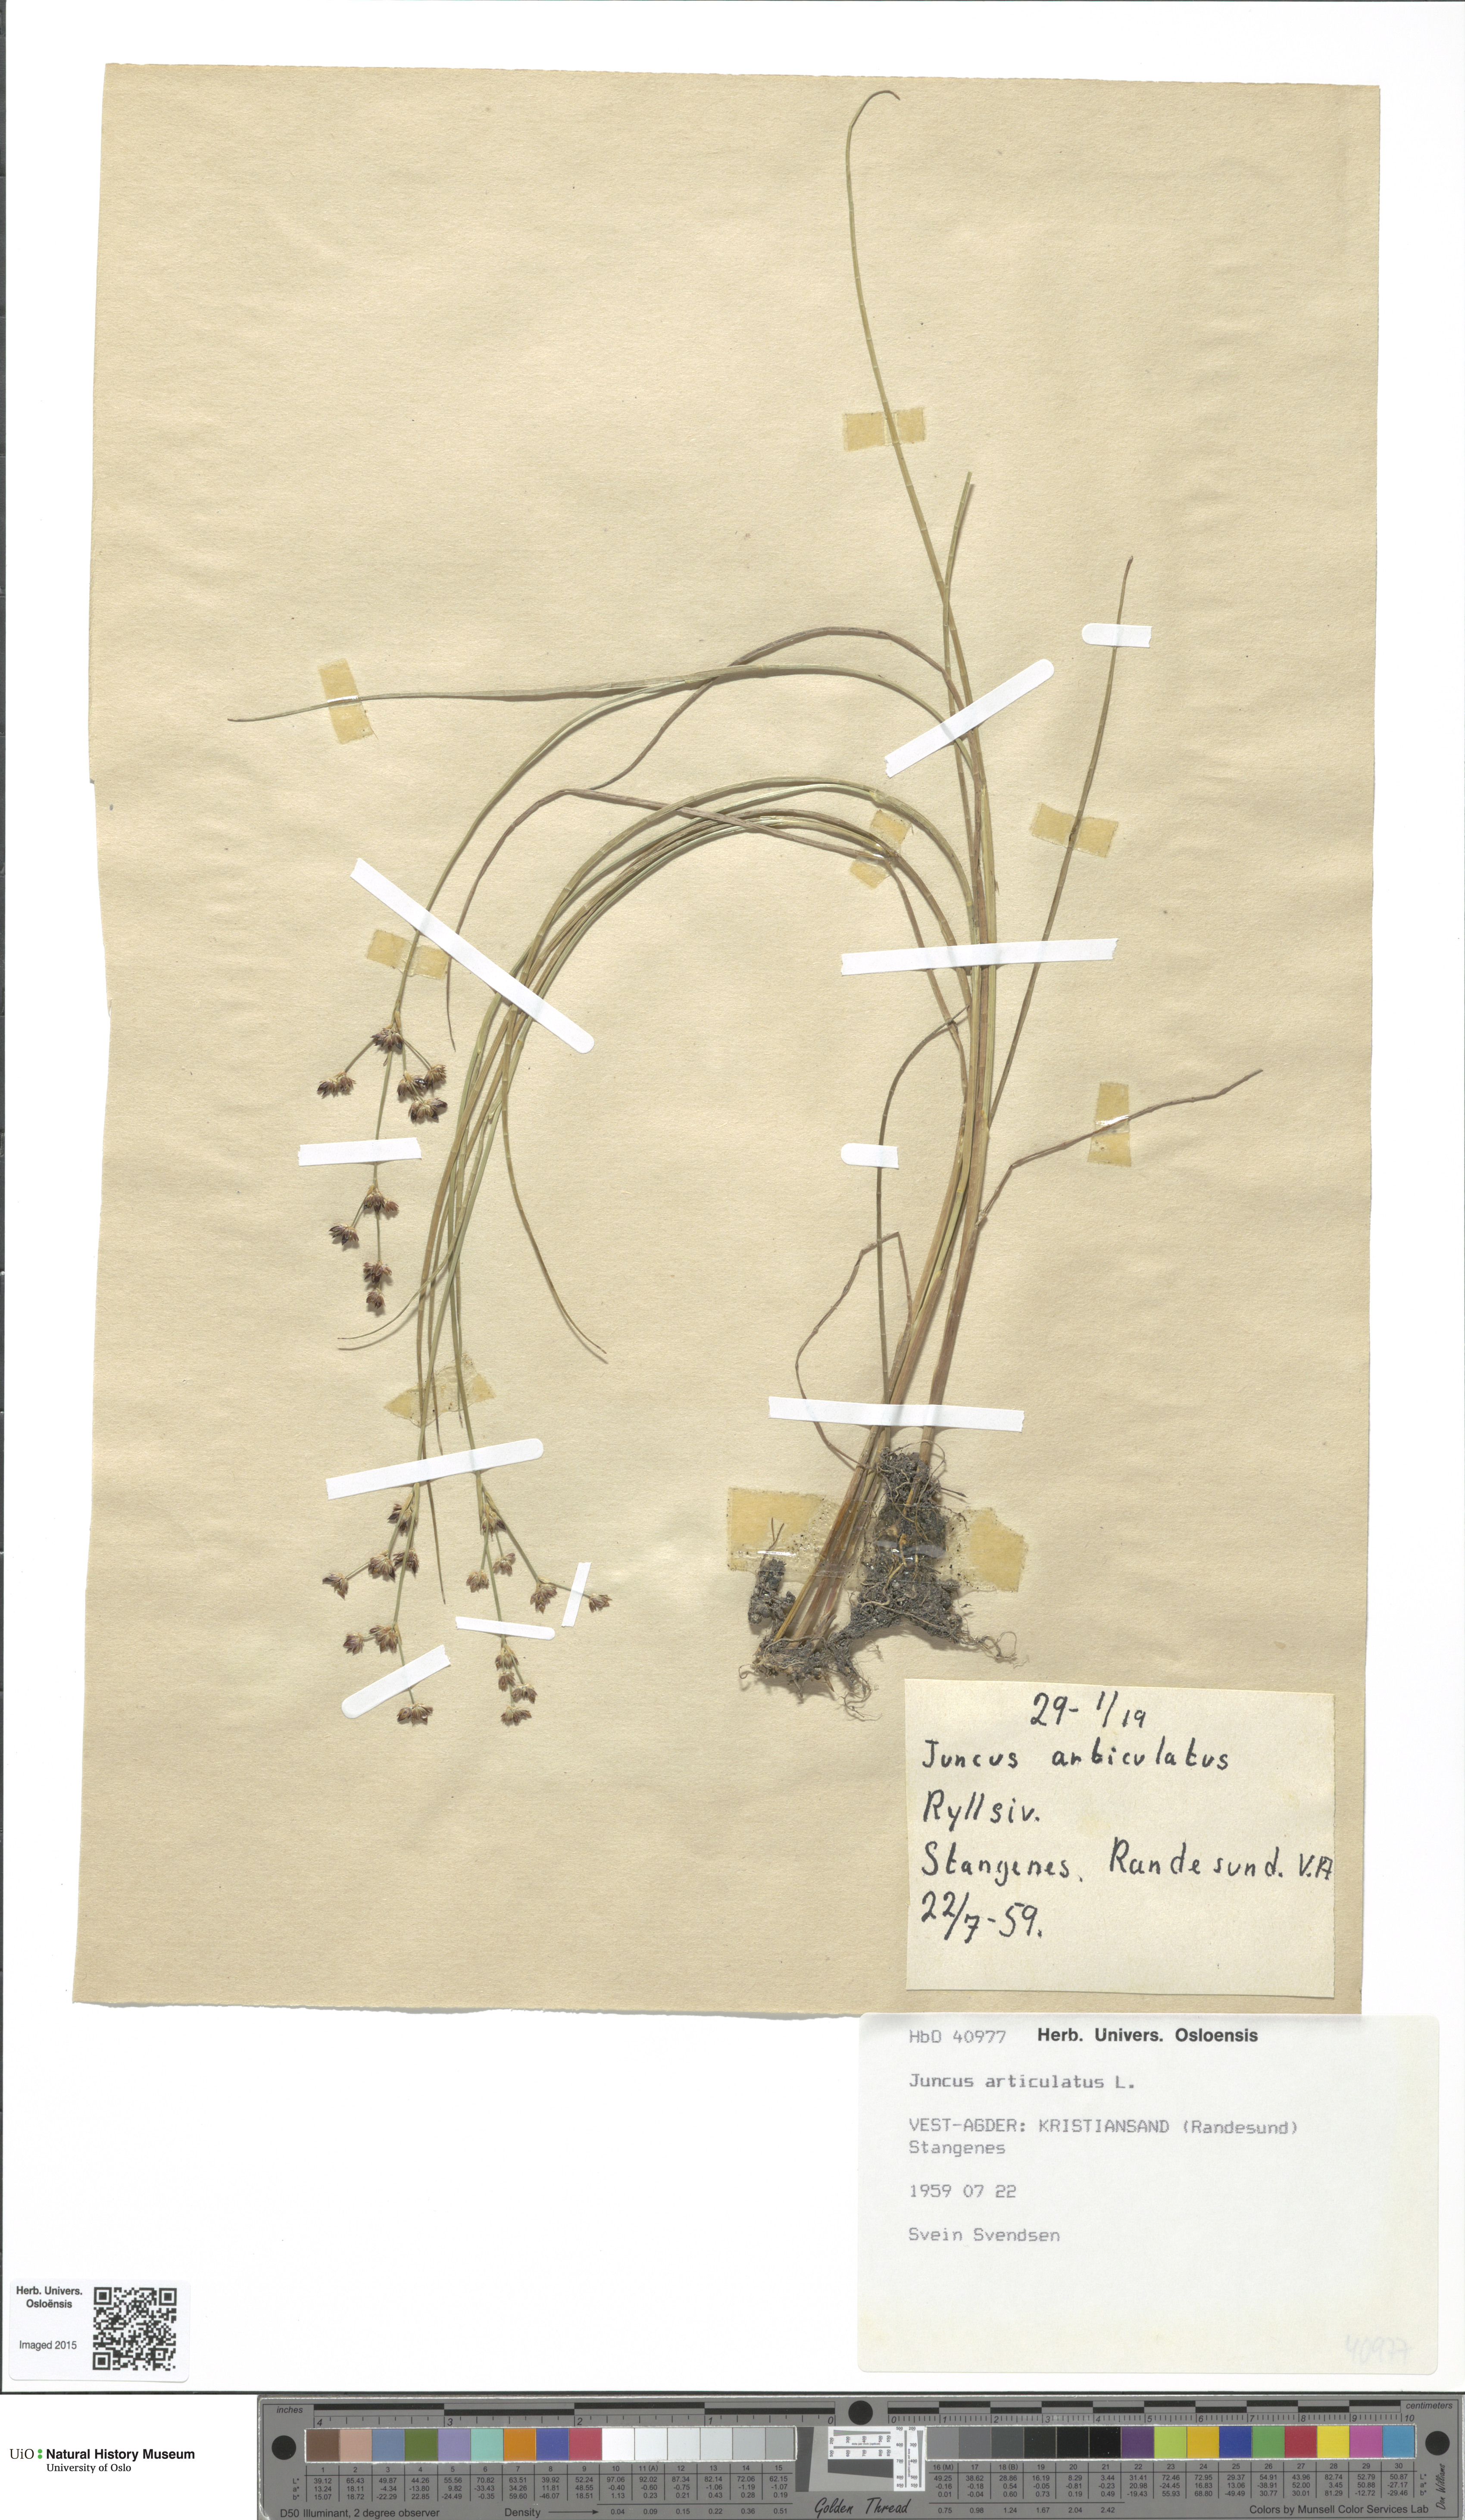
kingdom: Plantae
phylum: Tracheophyta
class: Liliopsida
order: Poales
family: Juncaceae
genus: Juncus
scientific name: Juncus articulatus
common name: Jointed rush
